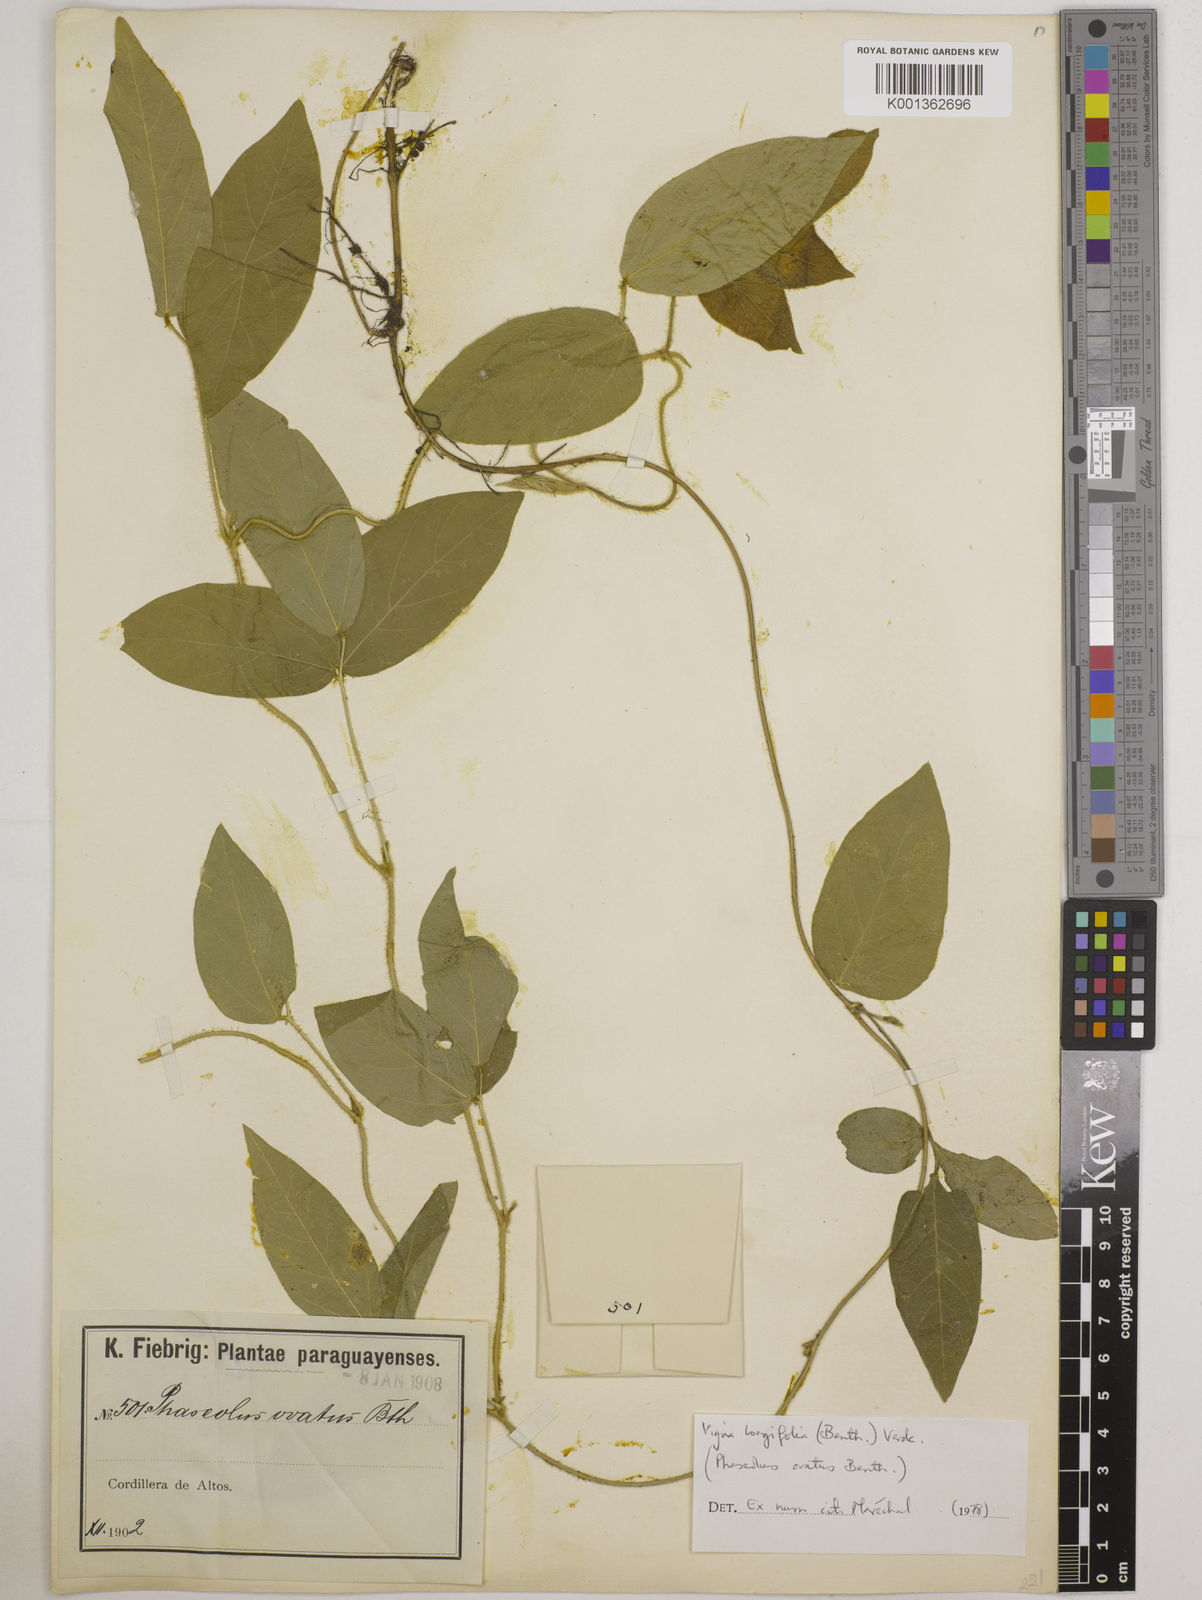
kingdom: Plantae
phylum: Tracheophyta
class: Magnoliopsida
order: Fabales
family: Fabaceae
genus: Vigna
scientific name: Vigna longifolia
